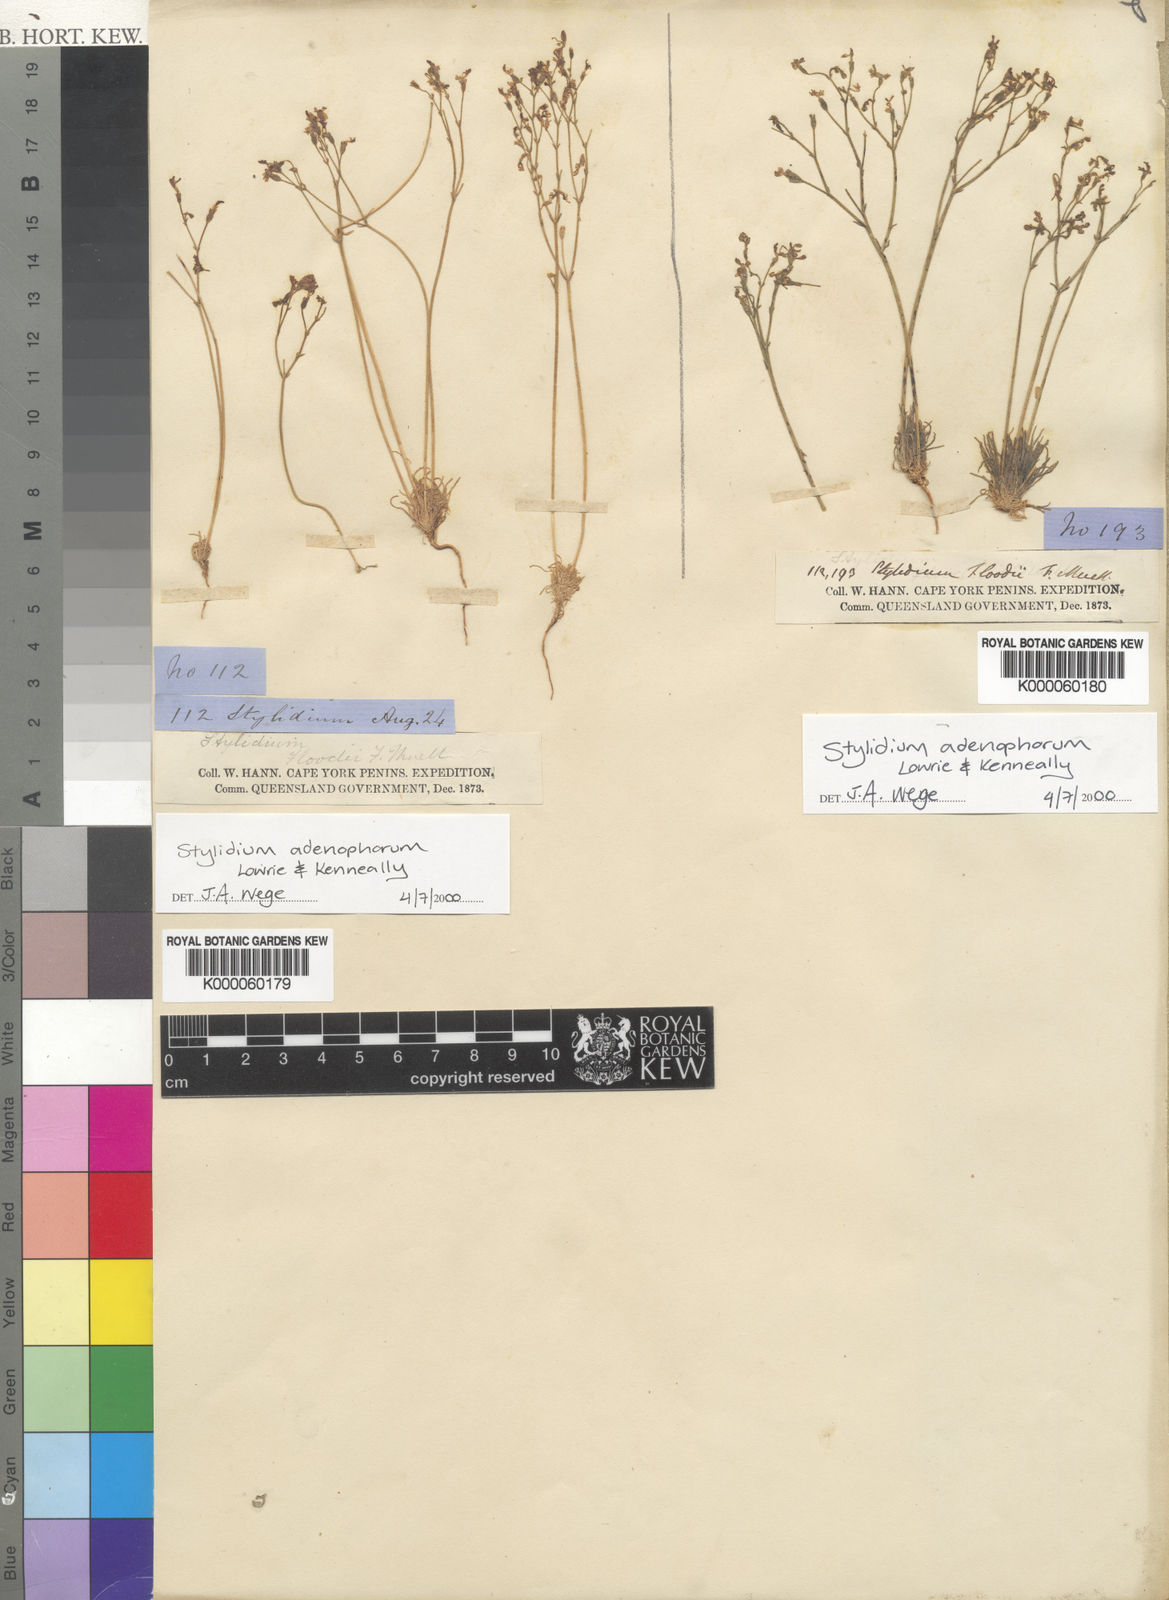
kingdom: Plantae
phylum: Tracheophyta
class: Magnoliopsida
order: Asterales
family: Stylidiaceae
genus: Stylidium
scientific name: Stylidium adenophorum
